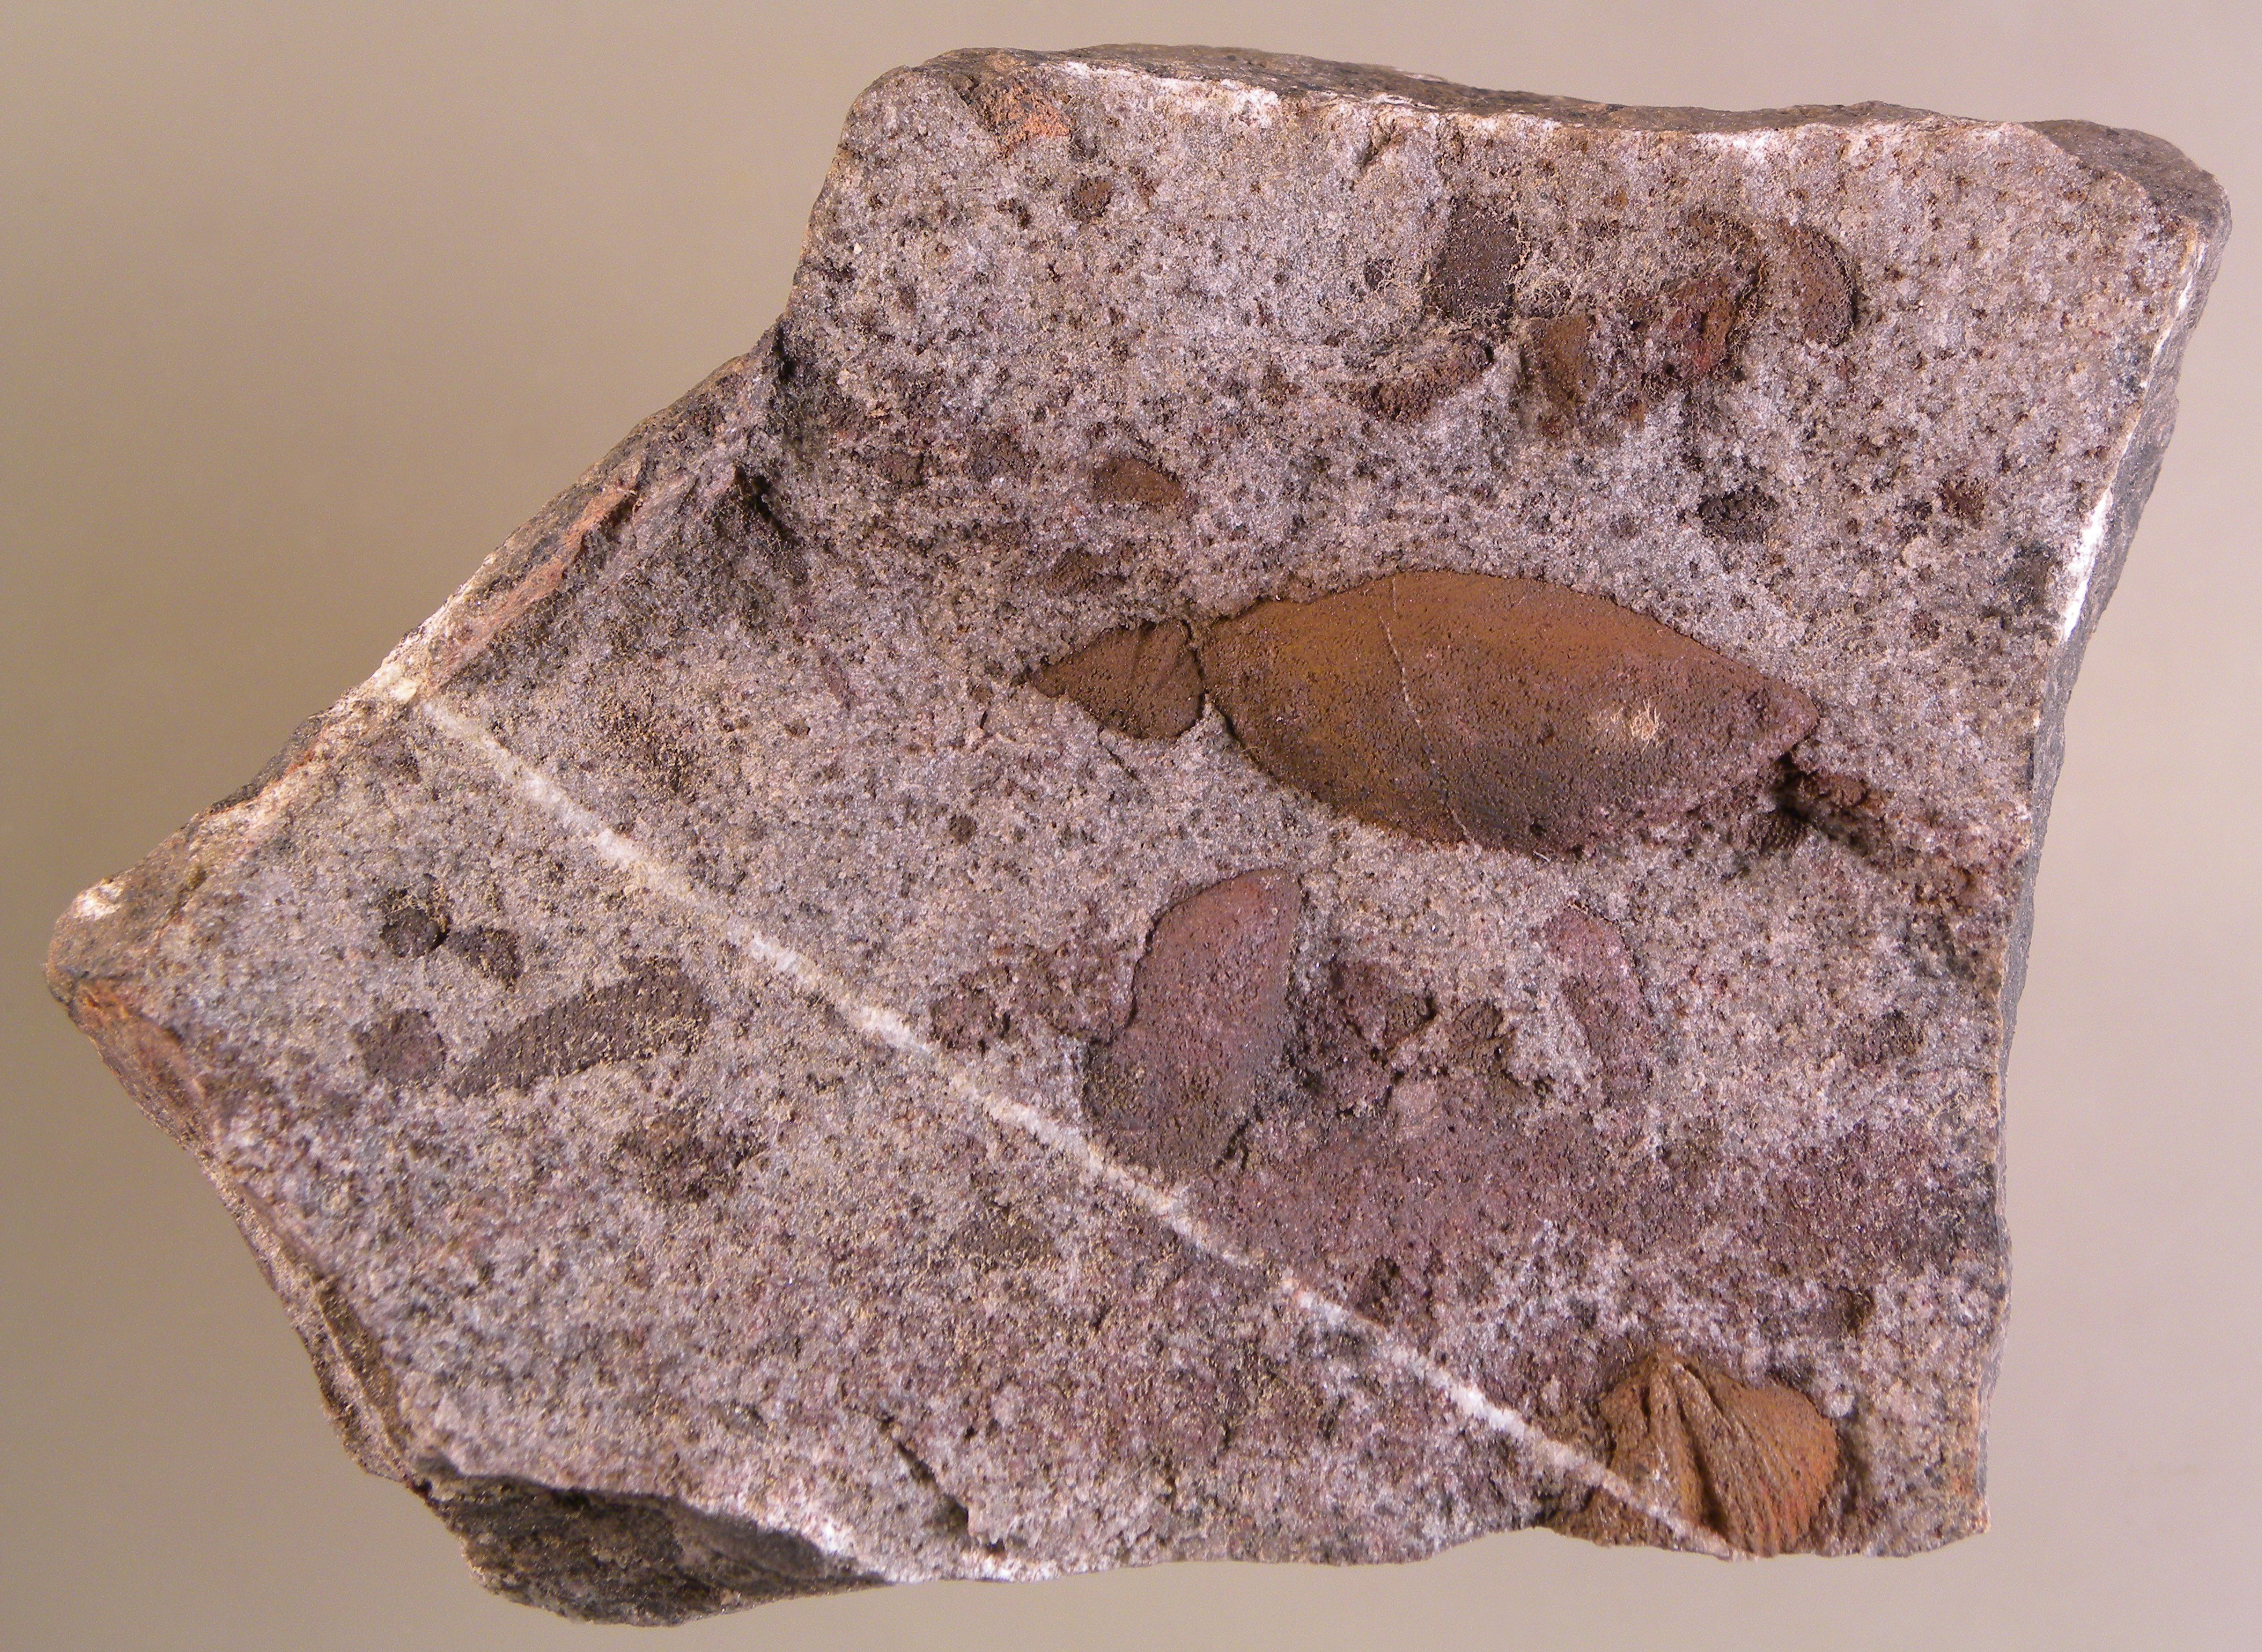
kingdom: Animalia
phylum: Mollusca
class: Bivalvia
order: Ostreida
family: Pterineidae
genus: Leptodesma
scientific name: Leptodesma
